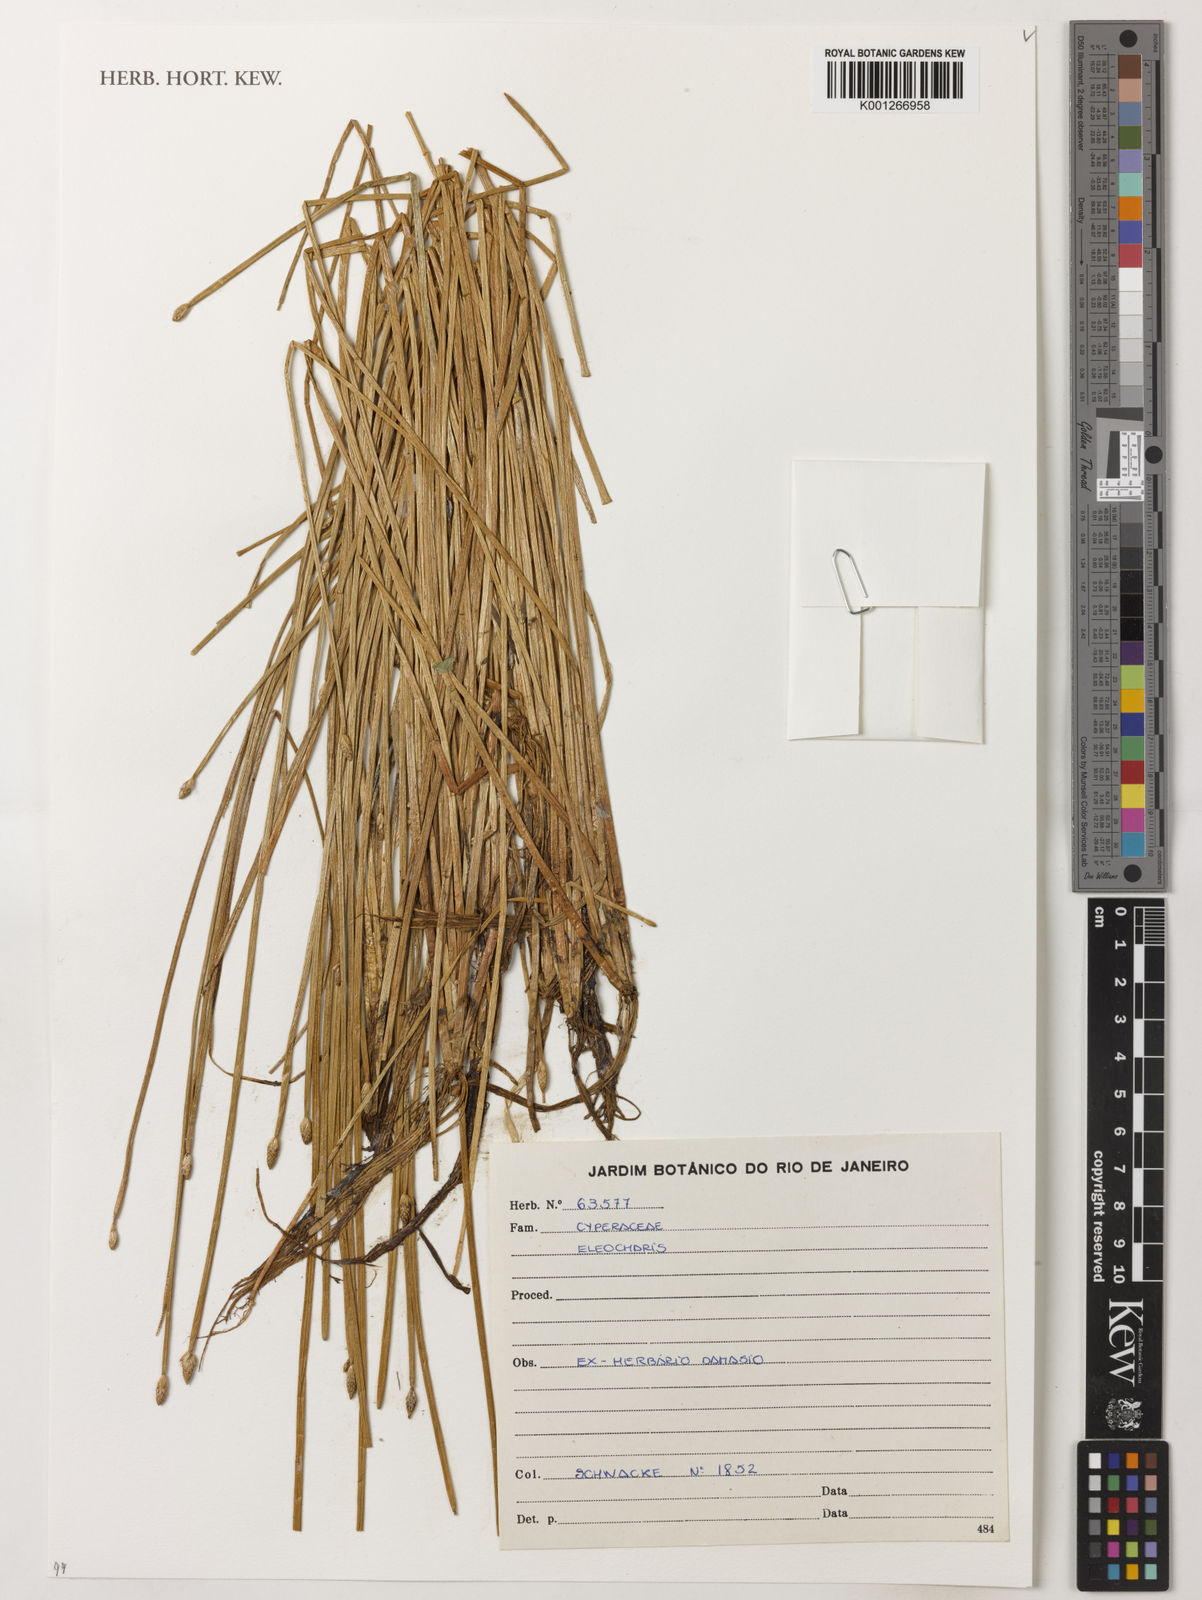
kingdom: Plantae
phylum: Tracheophyta
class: Liliopsida
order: Poales
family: Cyperaceae
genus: Eleocharis
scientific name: Eleocharis
